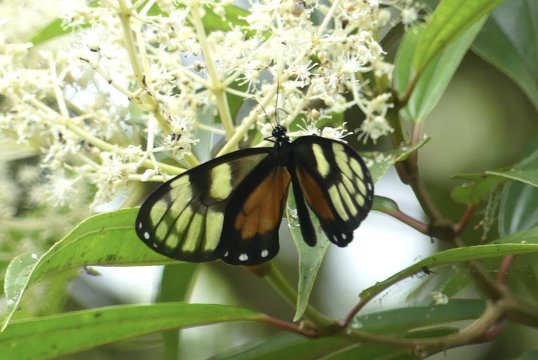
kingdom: Animalia
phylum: Arthropoda
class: Insecta
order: Lepidoptera
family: Nymphalidae
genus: Godyris
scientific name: Godyris zavaleta
